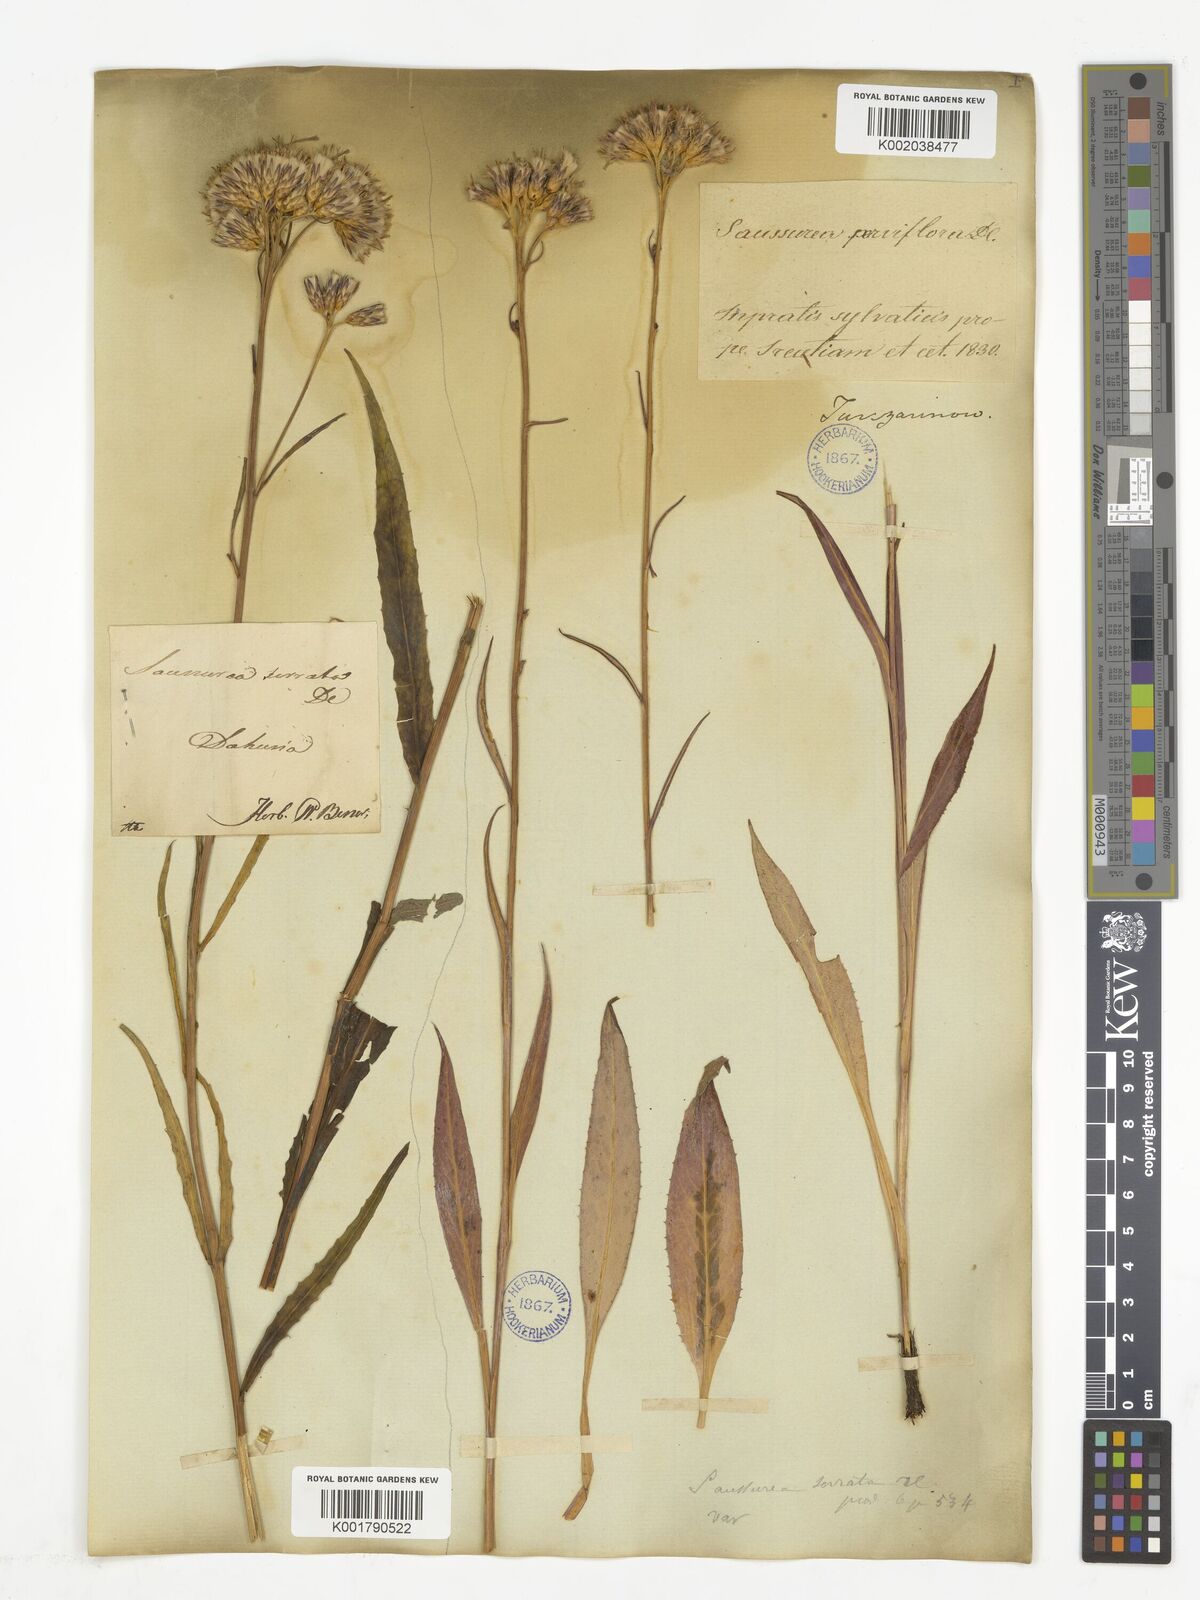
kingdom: Plantae
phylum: Tracheophyta
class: Magnoliopsida
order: Asterales
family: Asteraceae
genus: Saussurea
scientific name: Saussurea parviflora
